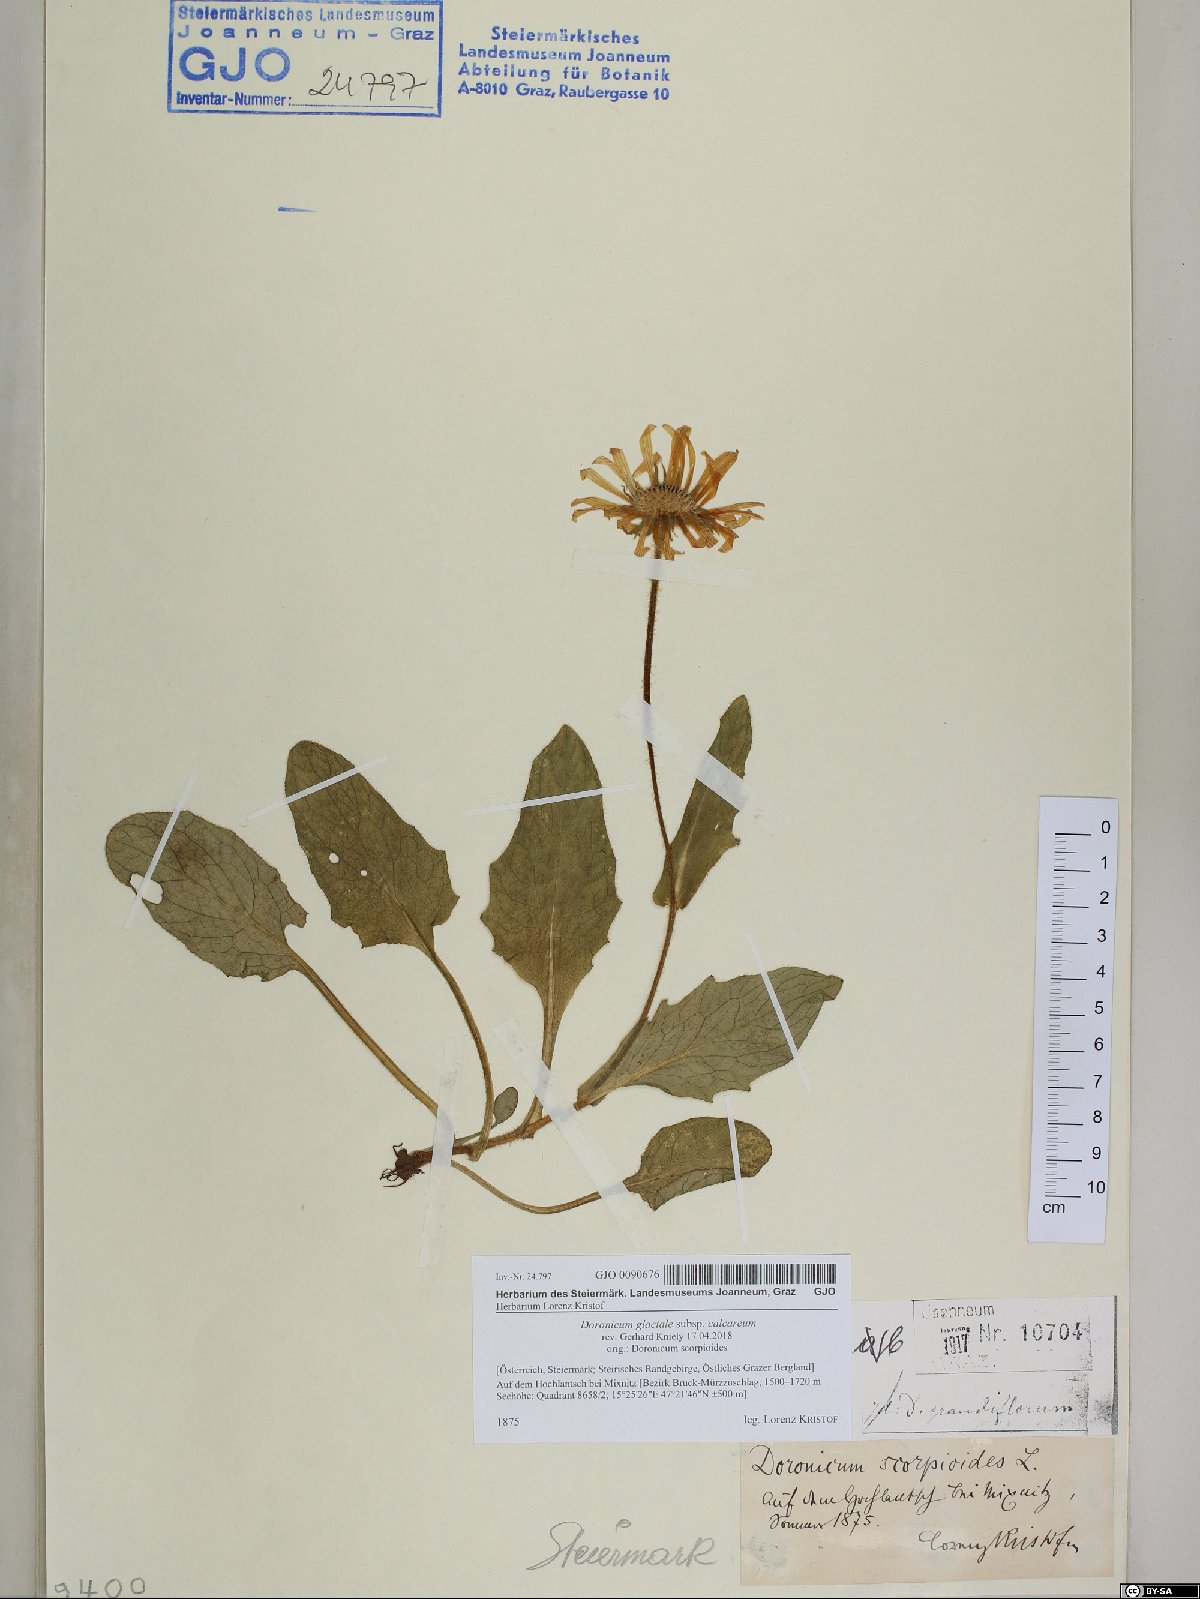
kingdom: Plantae
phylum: Tracheophyta
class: Magnoliopsida
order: Asterales
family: Asteraceae
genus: Doronicum
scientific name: Doronicum glaciale
